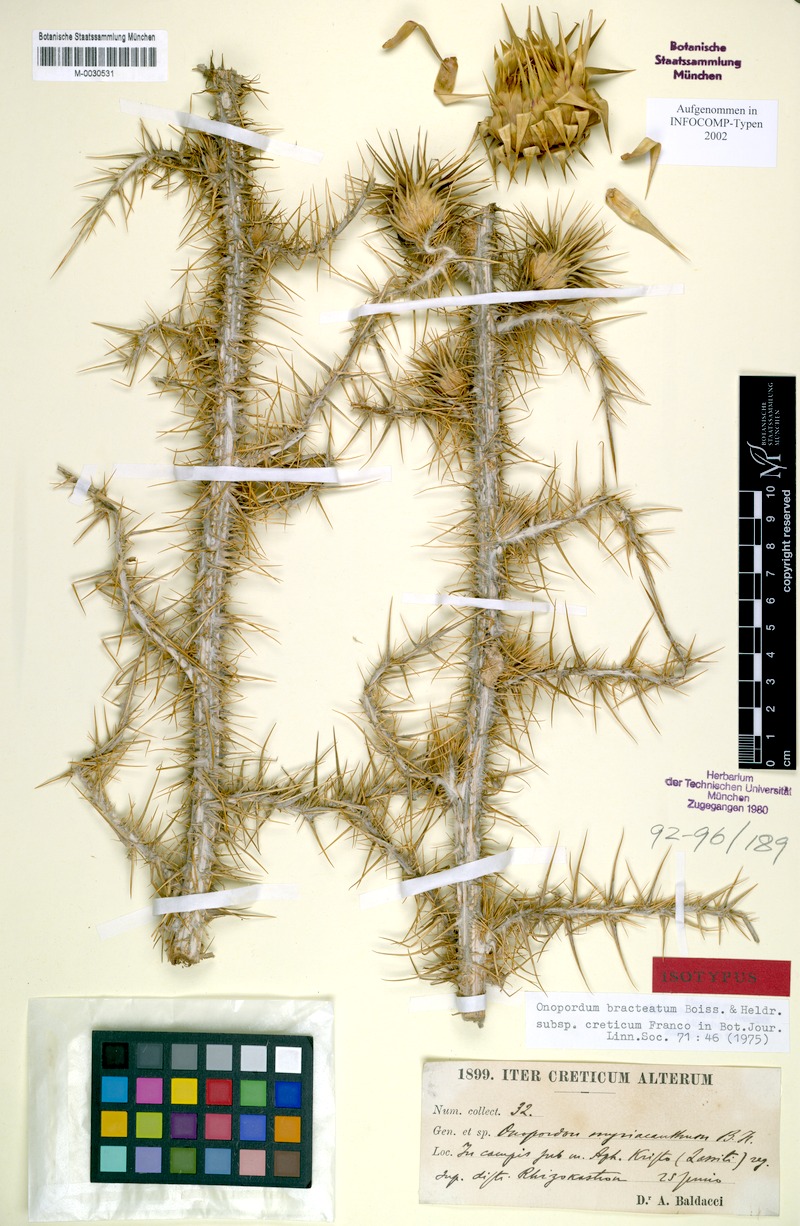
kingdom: Plantae
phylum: Tracheophyta
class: Magnoliopsida
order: Asterales
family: Asteraceae
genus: Onopordum
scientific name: Onopordum bracteatum
